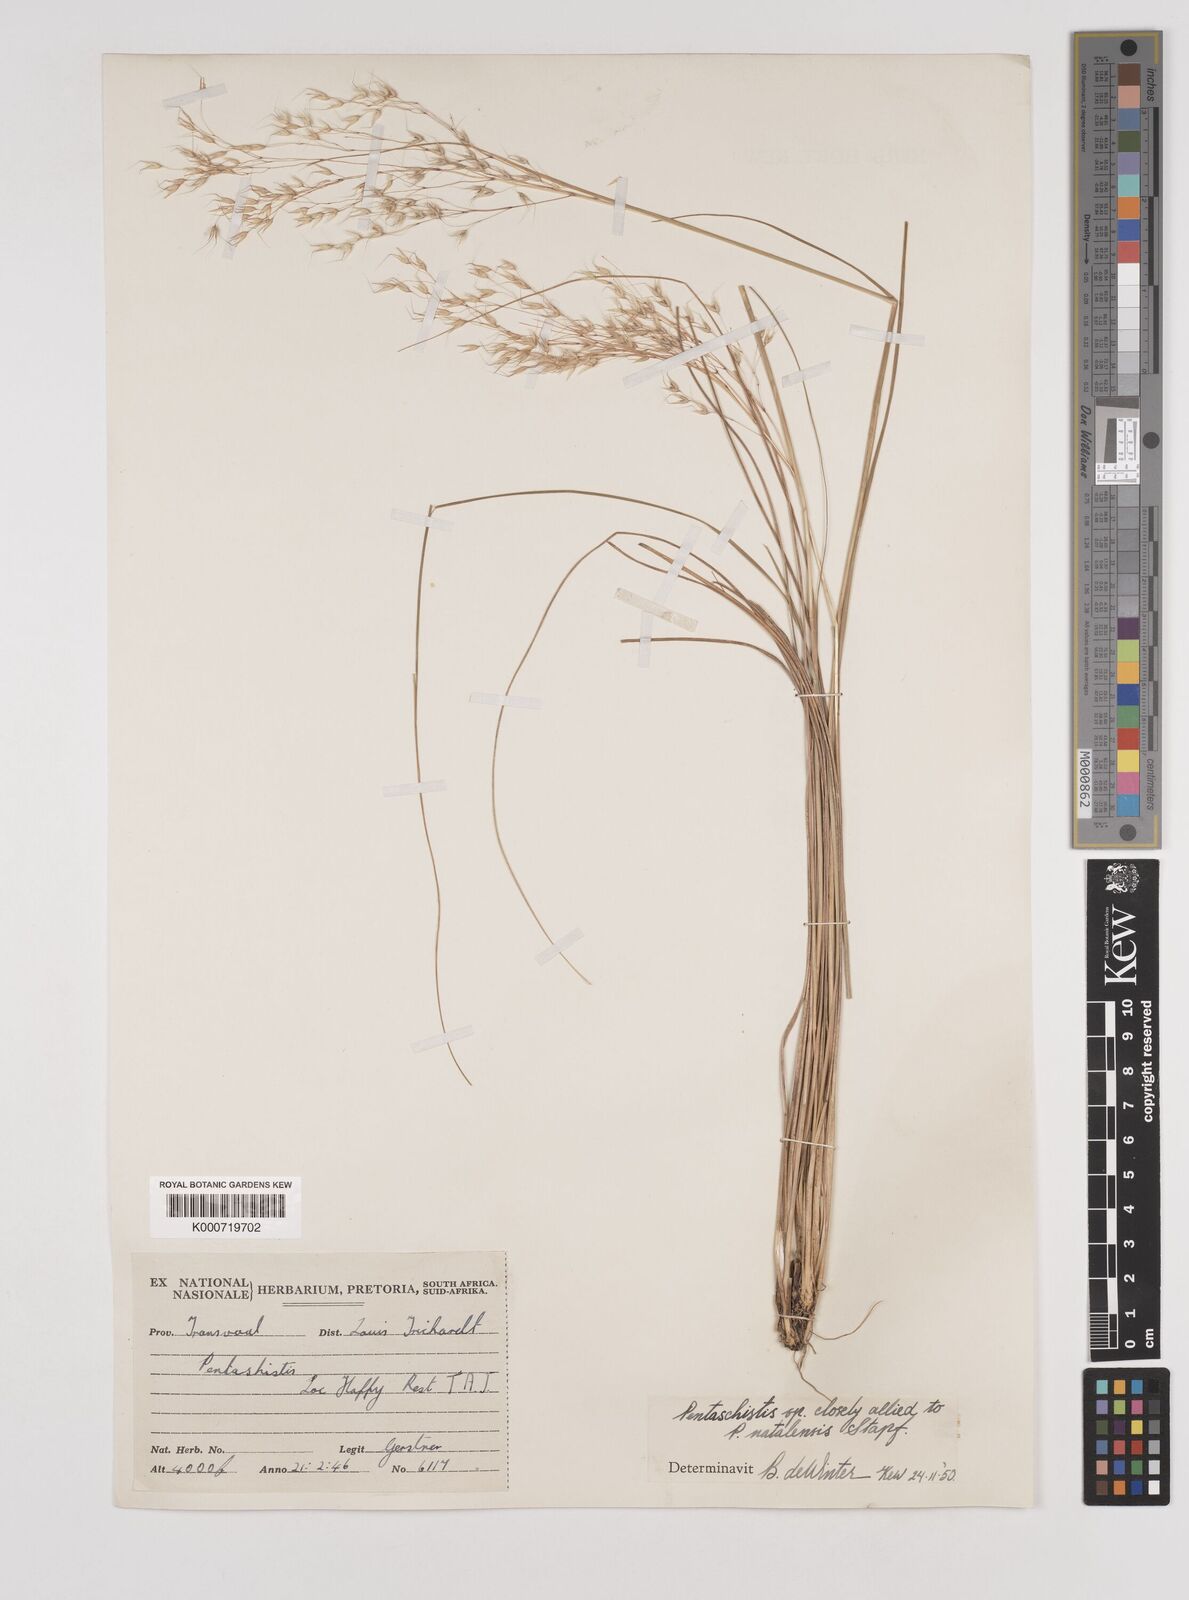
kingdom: Plantae
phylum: Tracheophyta
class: Liliopsida
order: Poales
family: Poaceae
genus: Pentameris
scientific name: Pentameris chippindalliae
